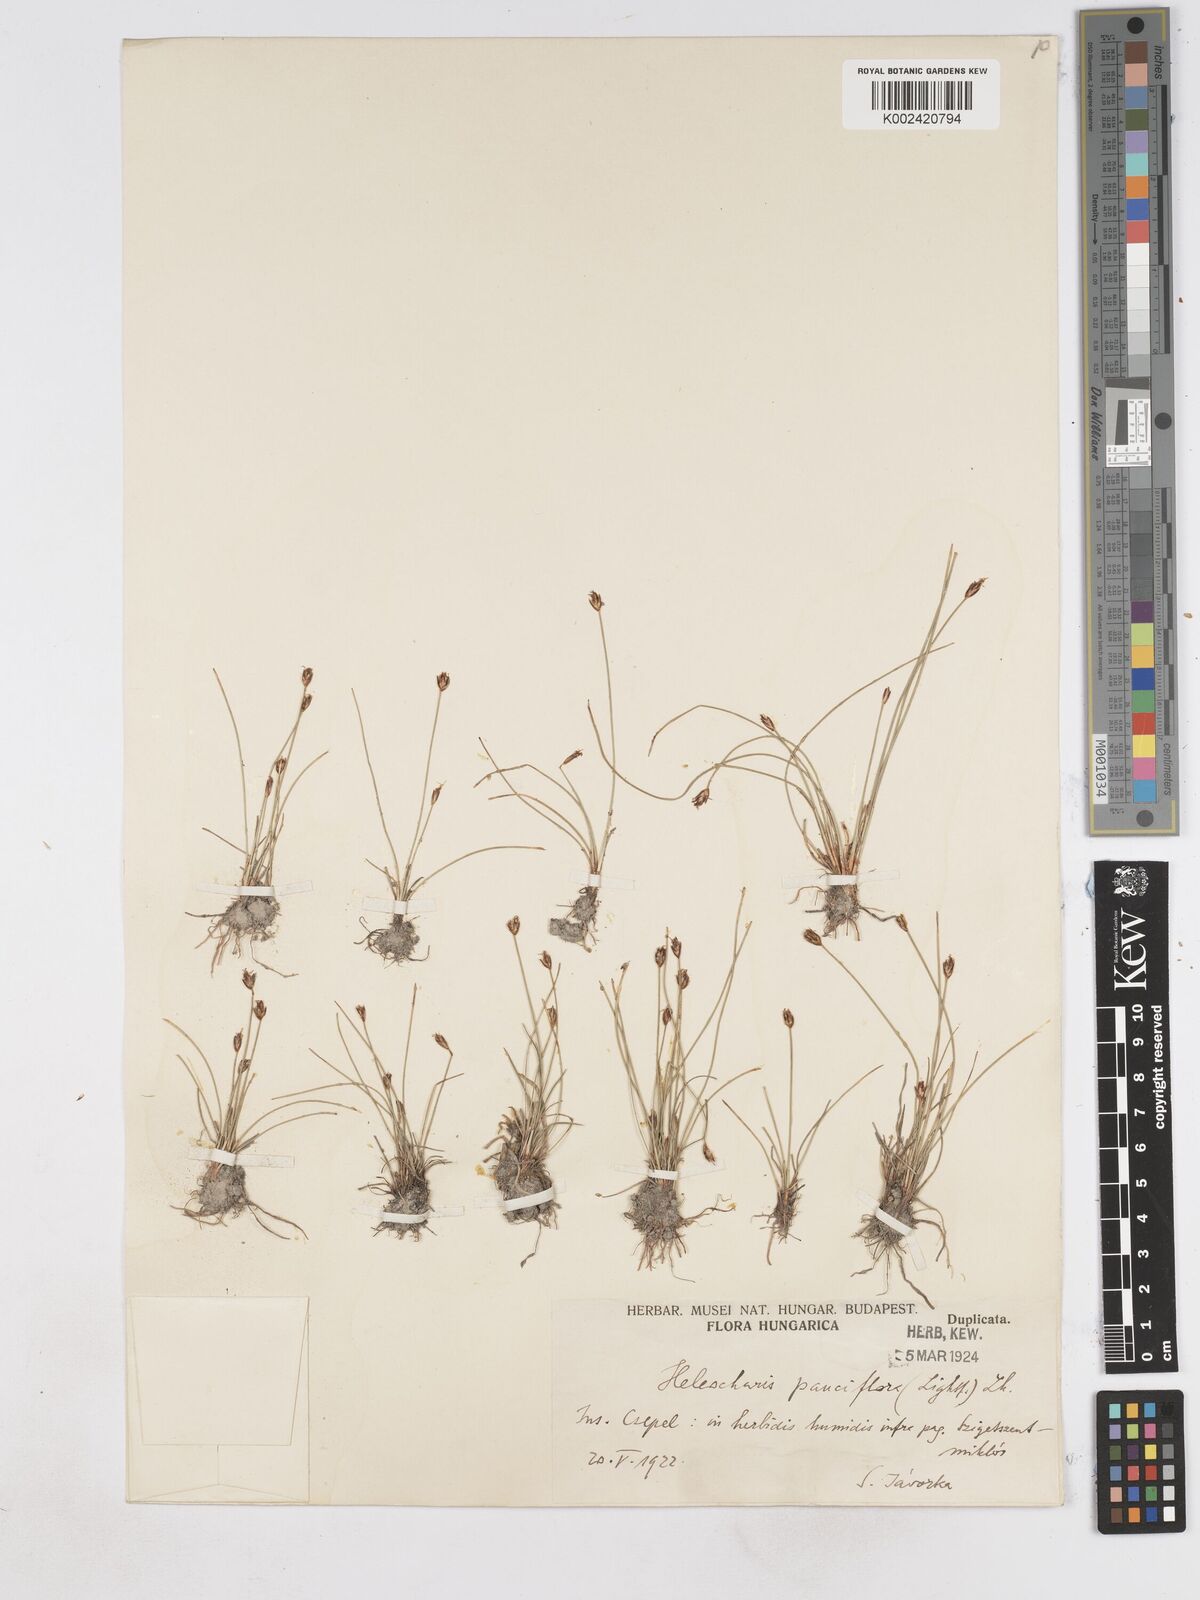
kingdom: Plantae
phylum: Tracheophyta
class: Liliopsida
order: Poales
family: Cyperaceae
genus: Eleocharis
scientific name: Eleocharis quinqueflora
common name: Few-flowered spike-rush
